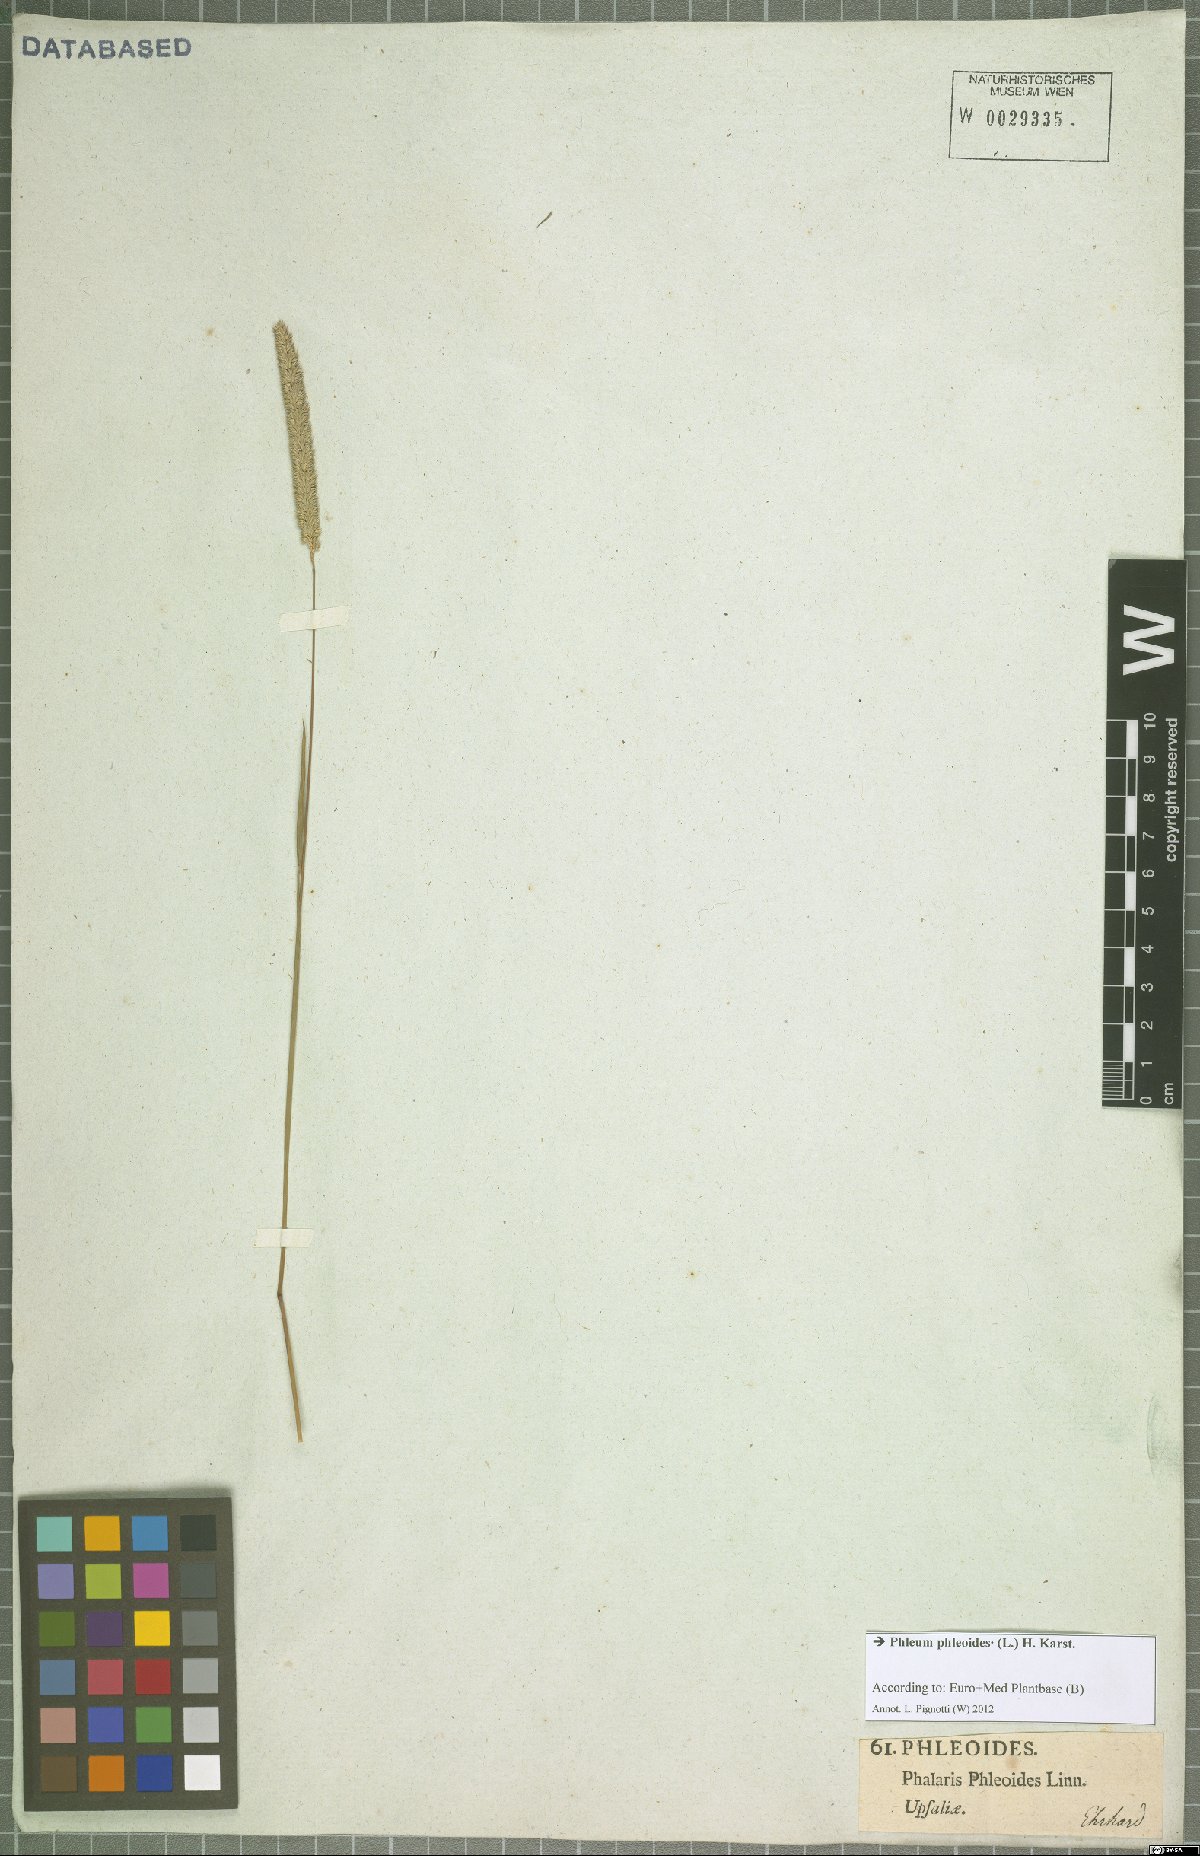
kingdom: Plantae
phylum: Tracheophyta
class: Liliopsida
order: Poales
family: Poaceae
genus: Phleum
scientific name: Phleum phleoides
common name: Purple-stem cat's-tail
